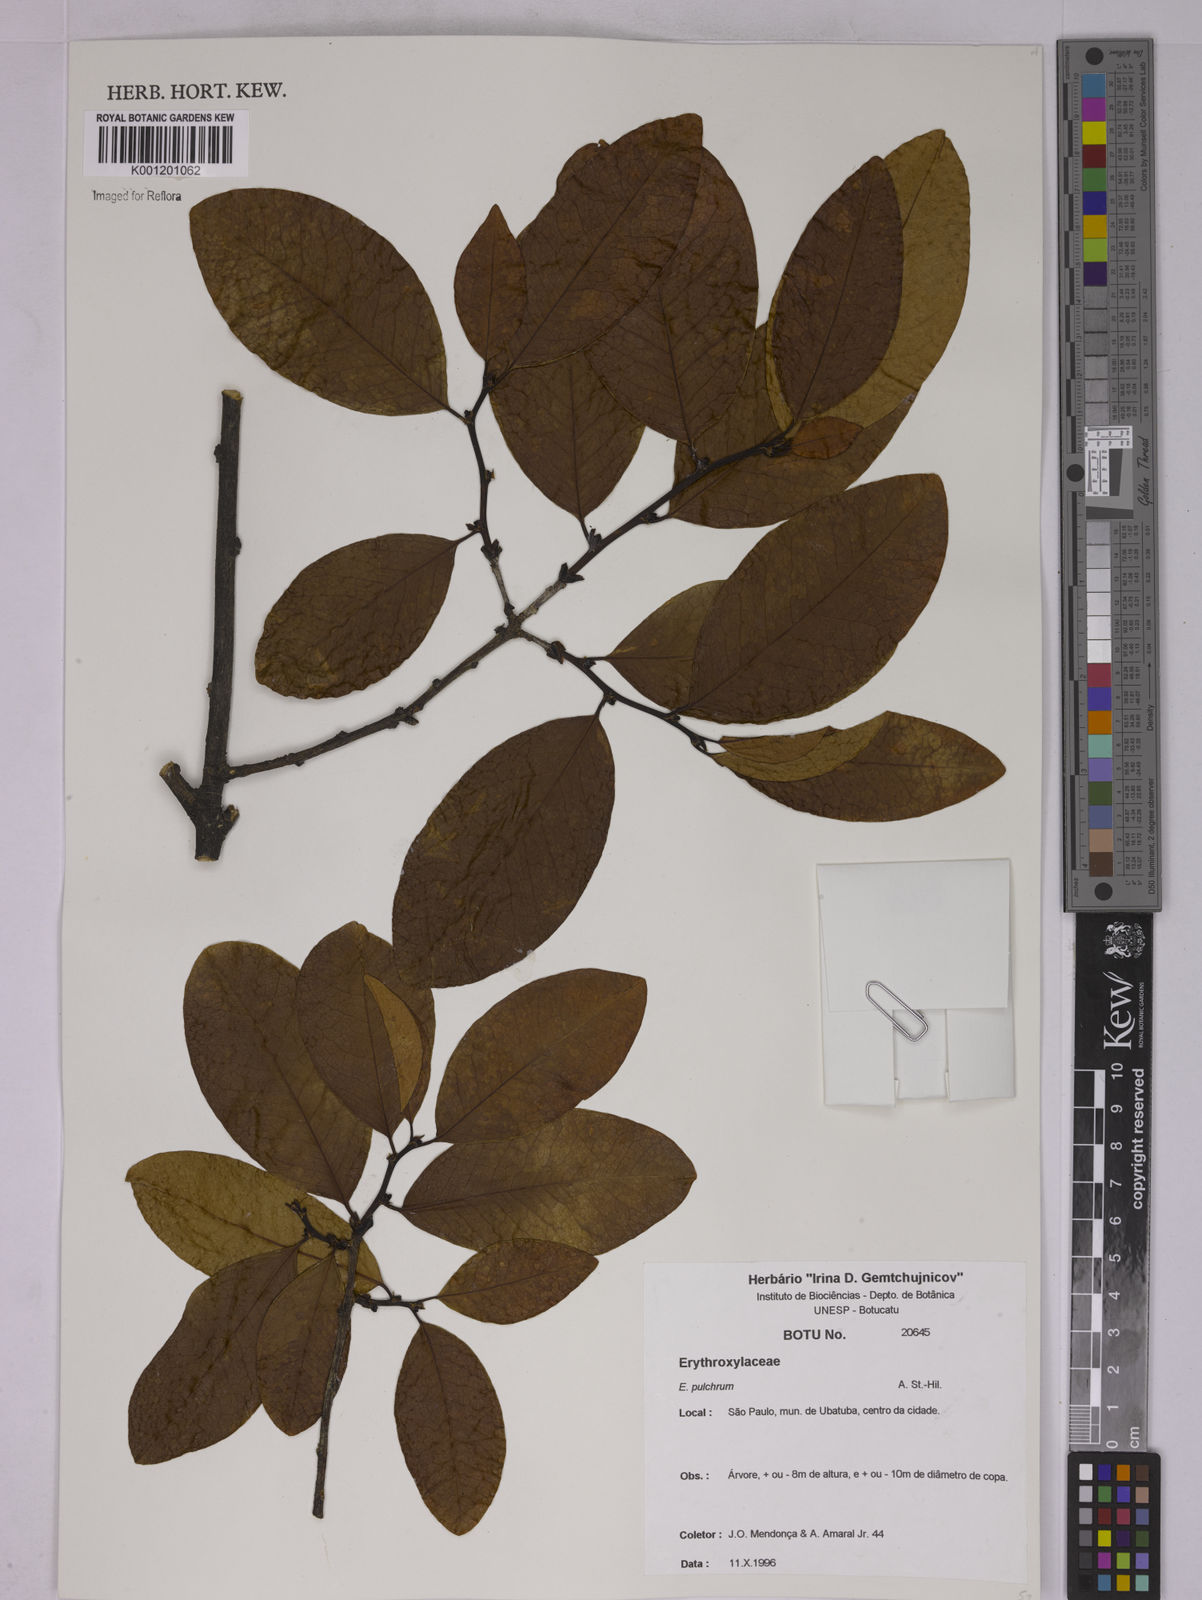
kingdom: Plantae
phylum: Tracheophyta
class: Magnoliopsida
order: Malpighiales
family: Erythroxylaceae
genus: Erythroxylum
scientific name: Erythroxylum pulchrum
